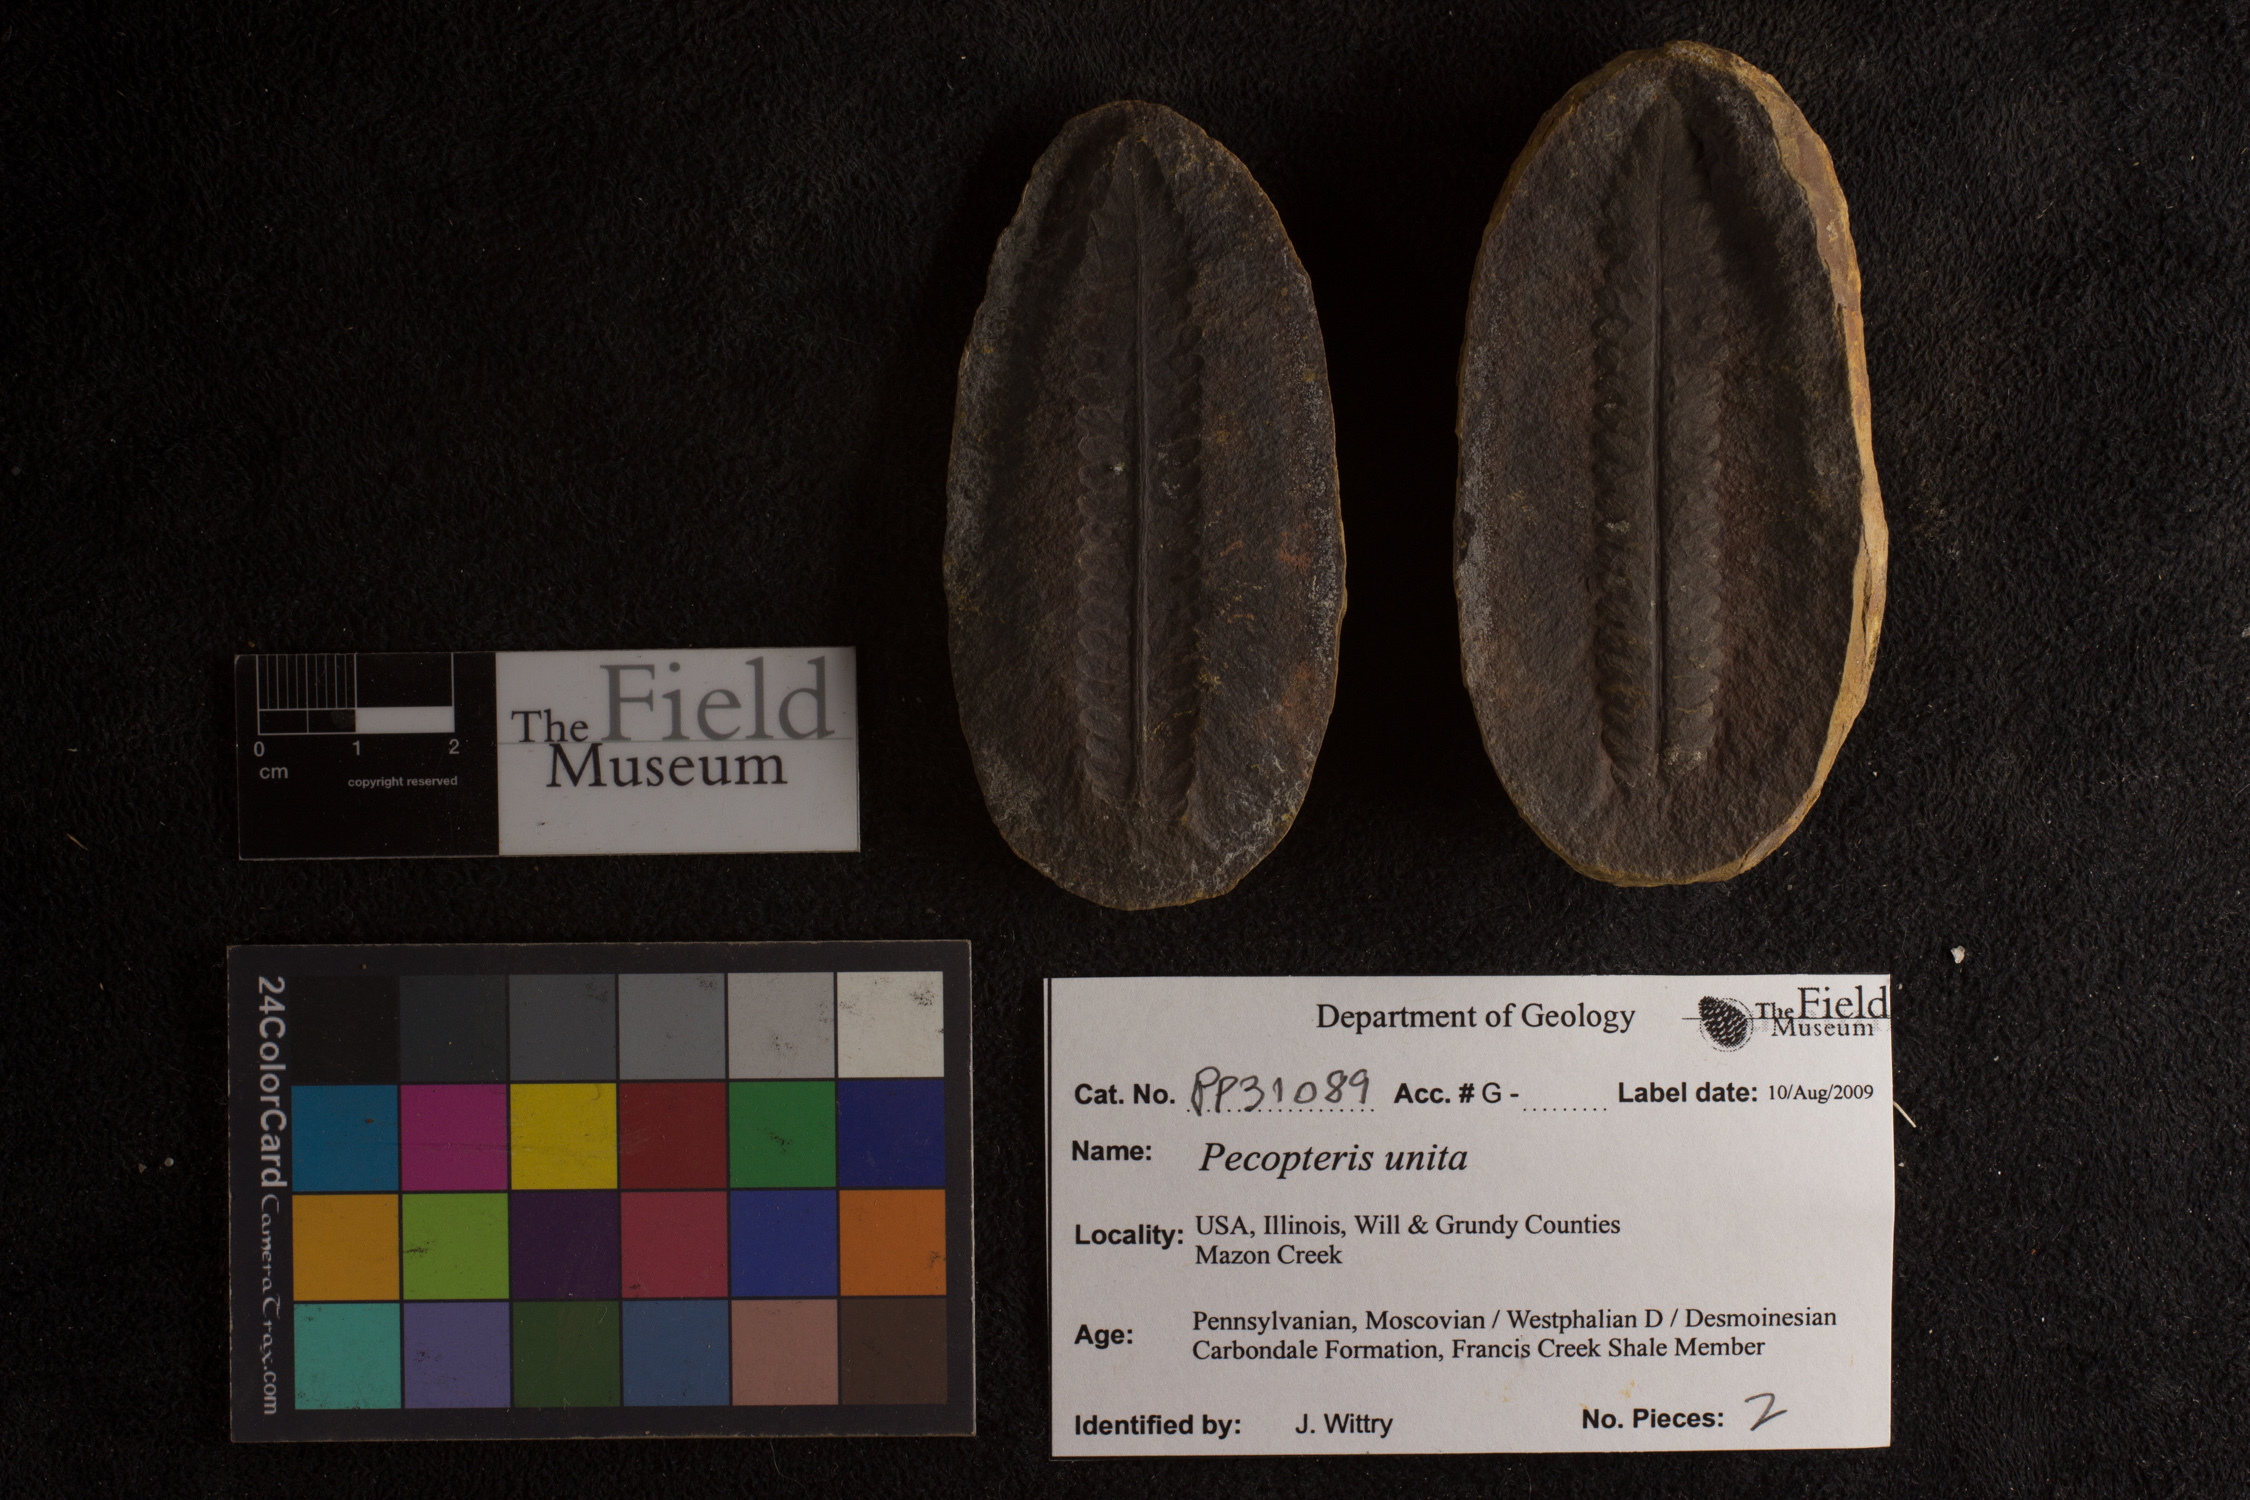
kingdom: Plantae
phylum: Tracheophyta
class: Polypodiopsida
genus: Diplazites
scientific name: Diplazites
